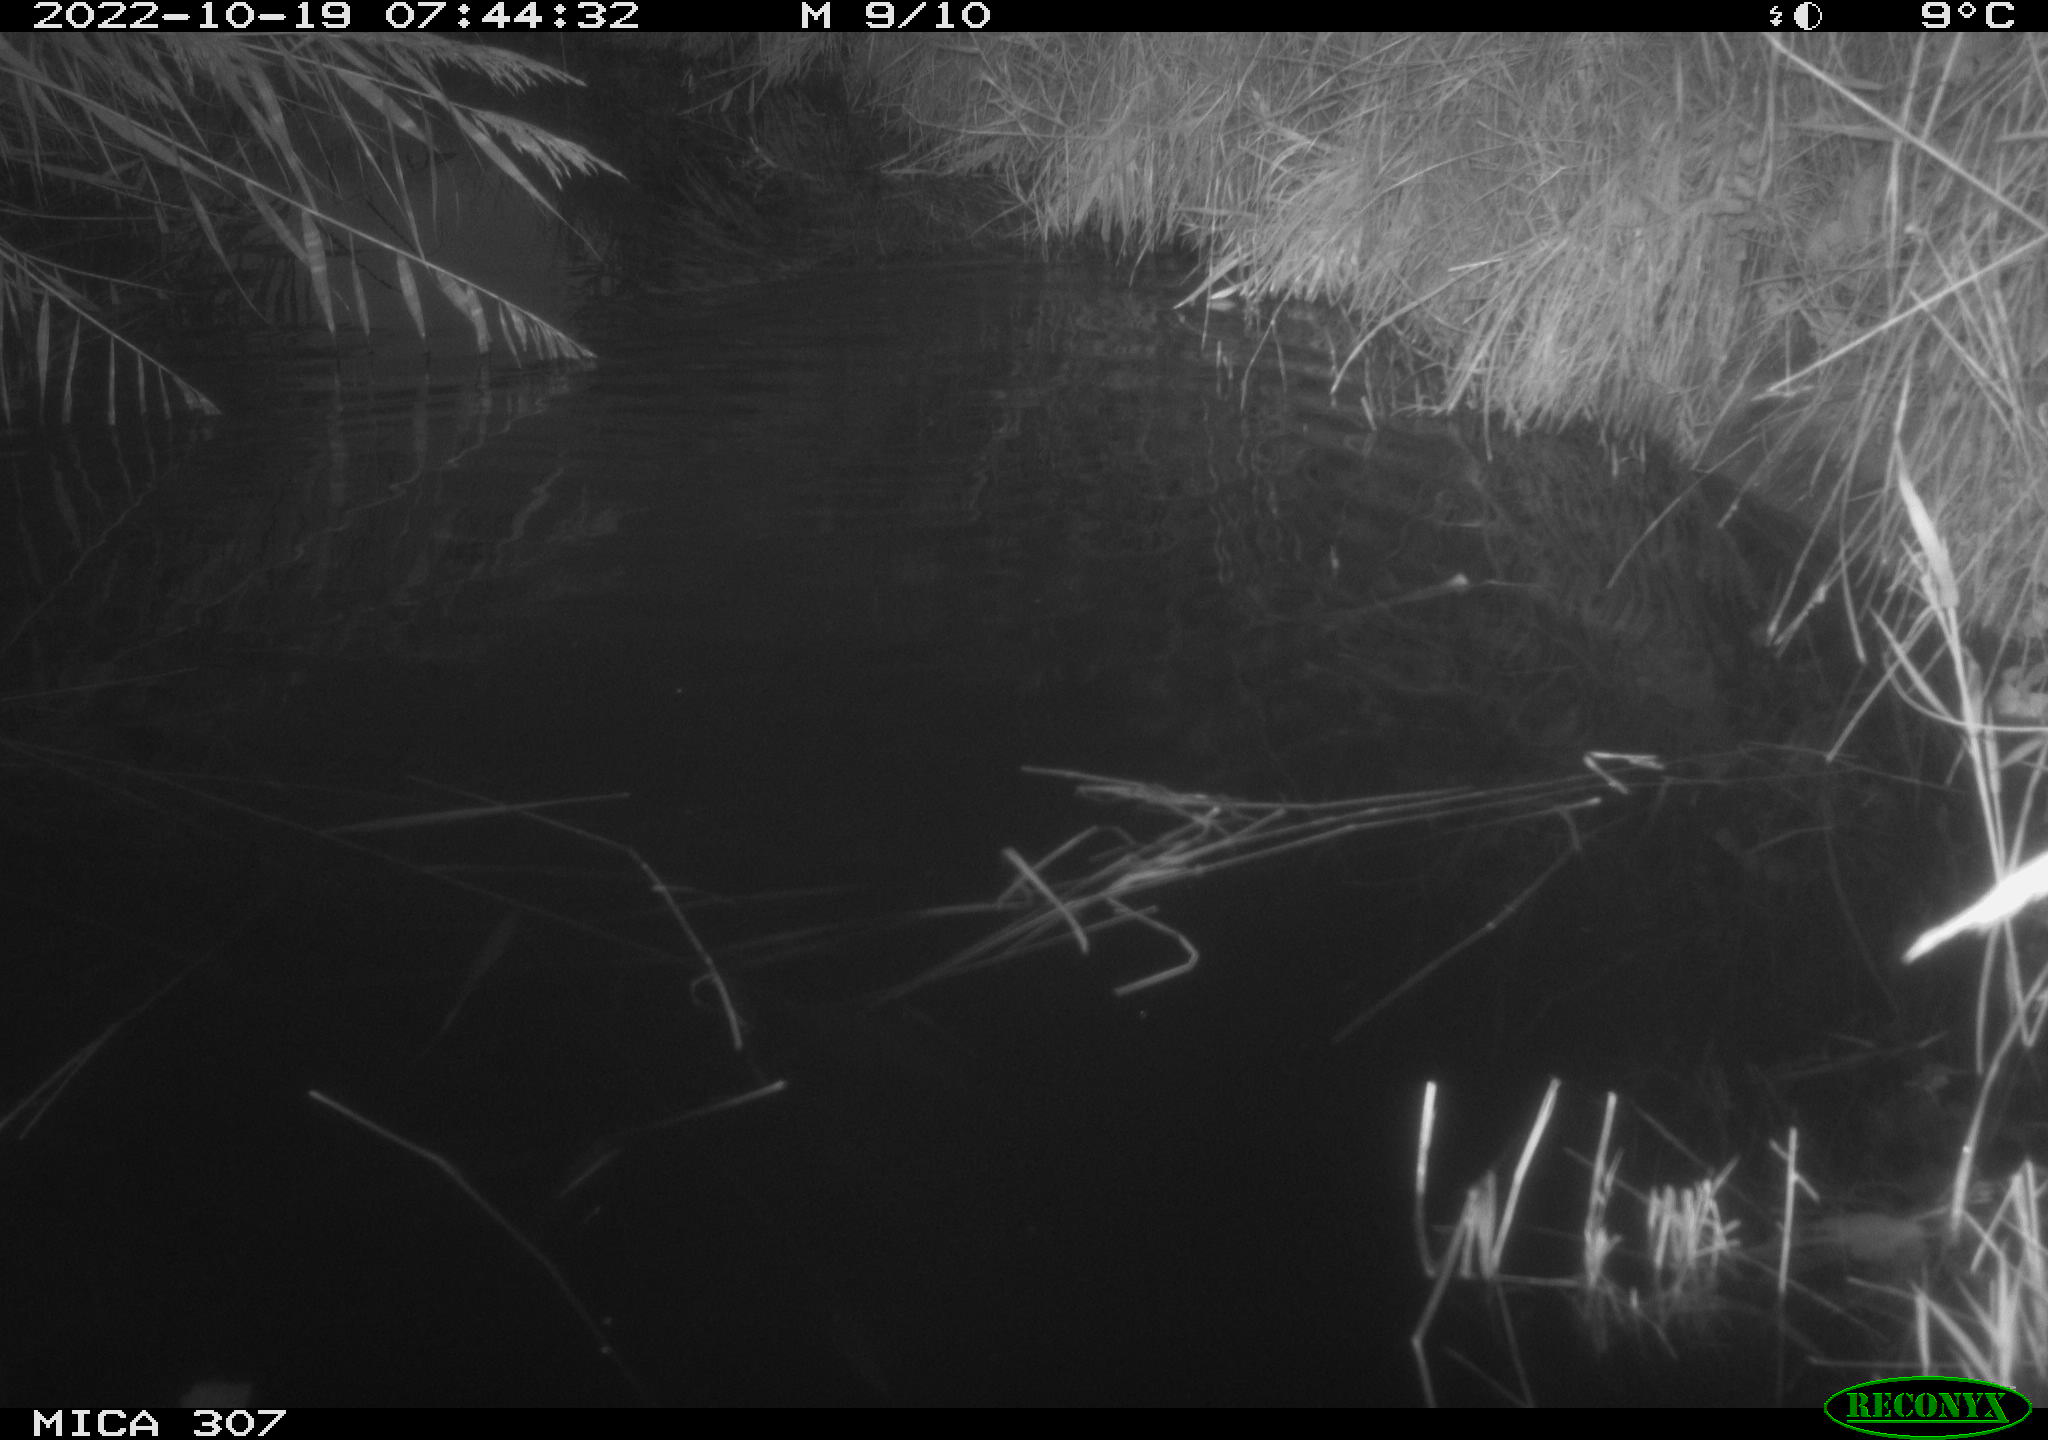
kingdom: Animalia
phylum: Chordata
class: Mammalia
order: Rodentia
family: Muridae
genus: Rattus
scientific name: Rattus norvegicus
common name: Brown rat
